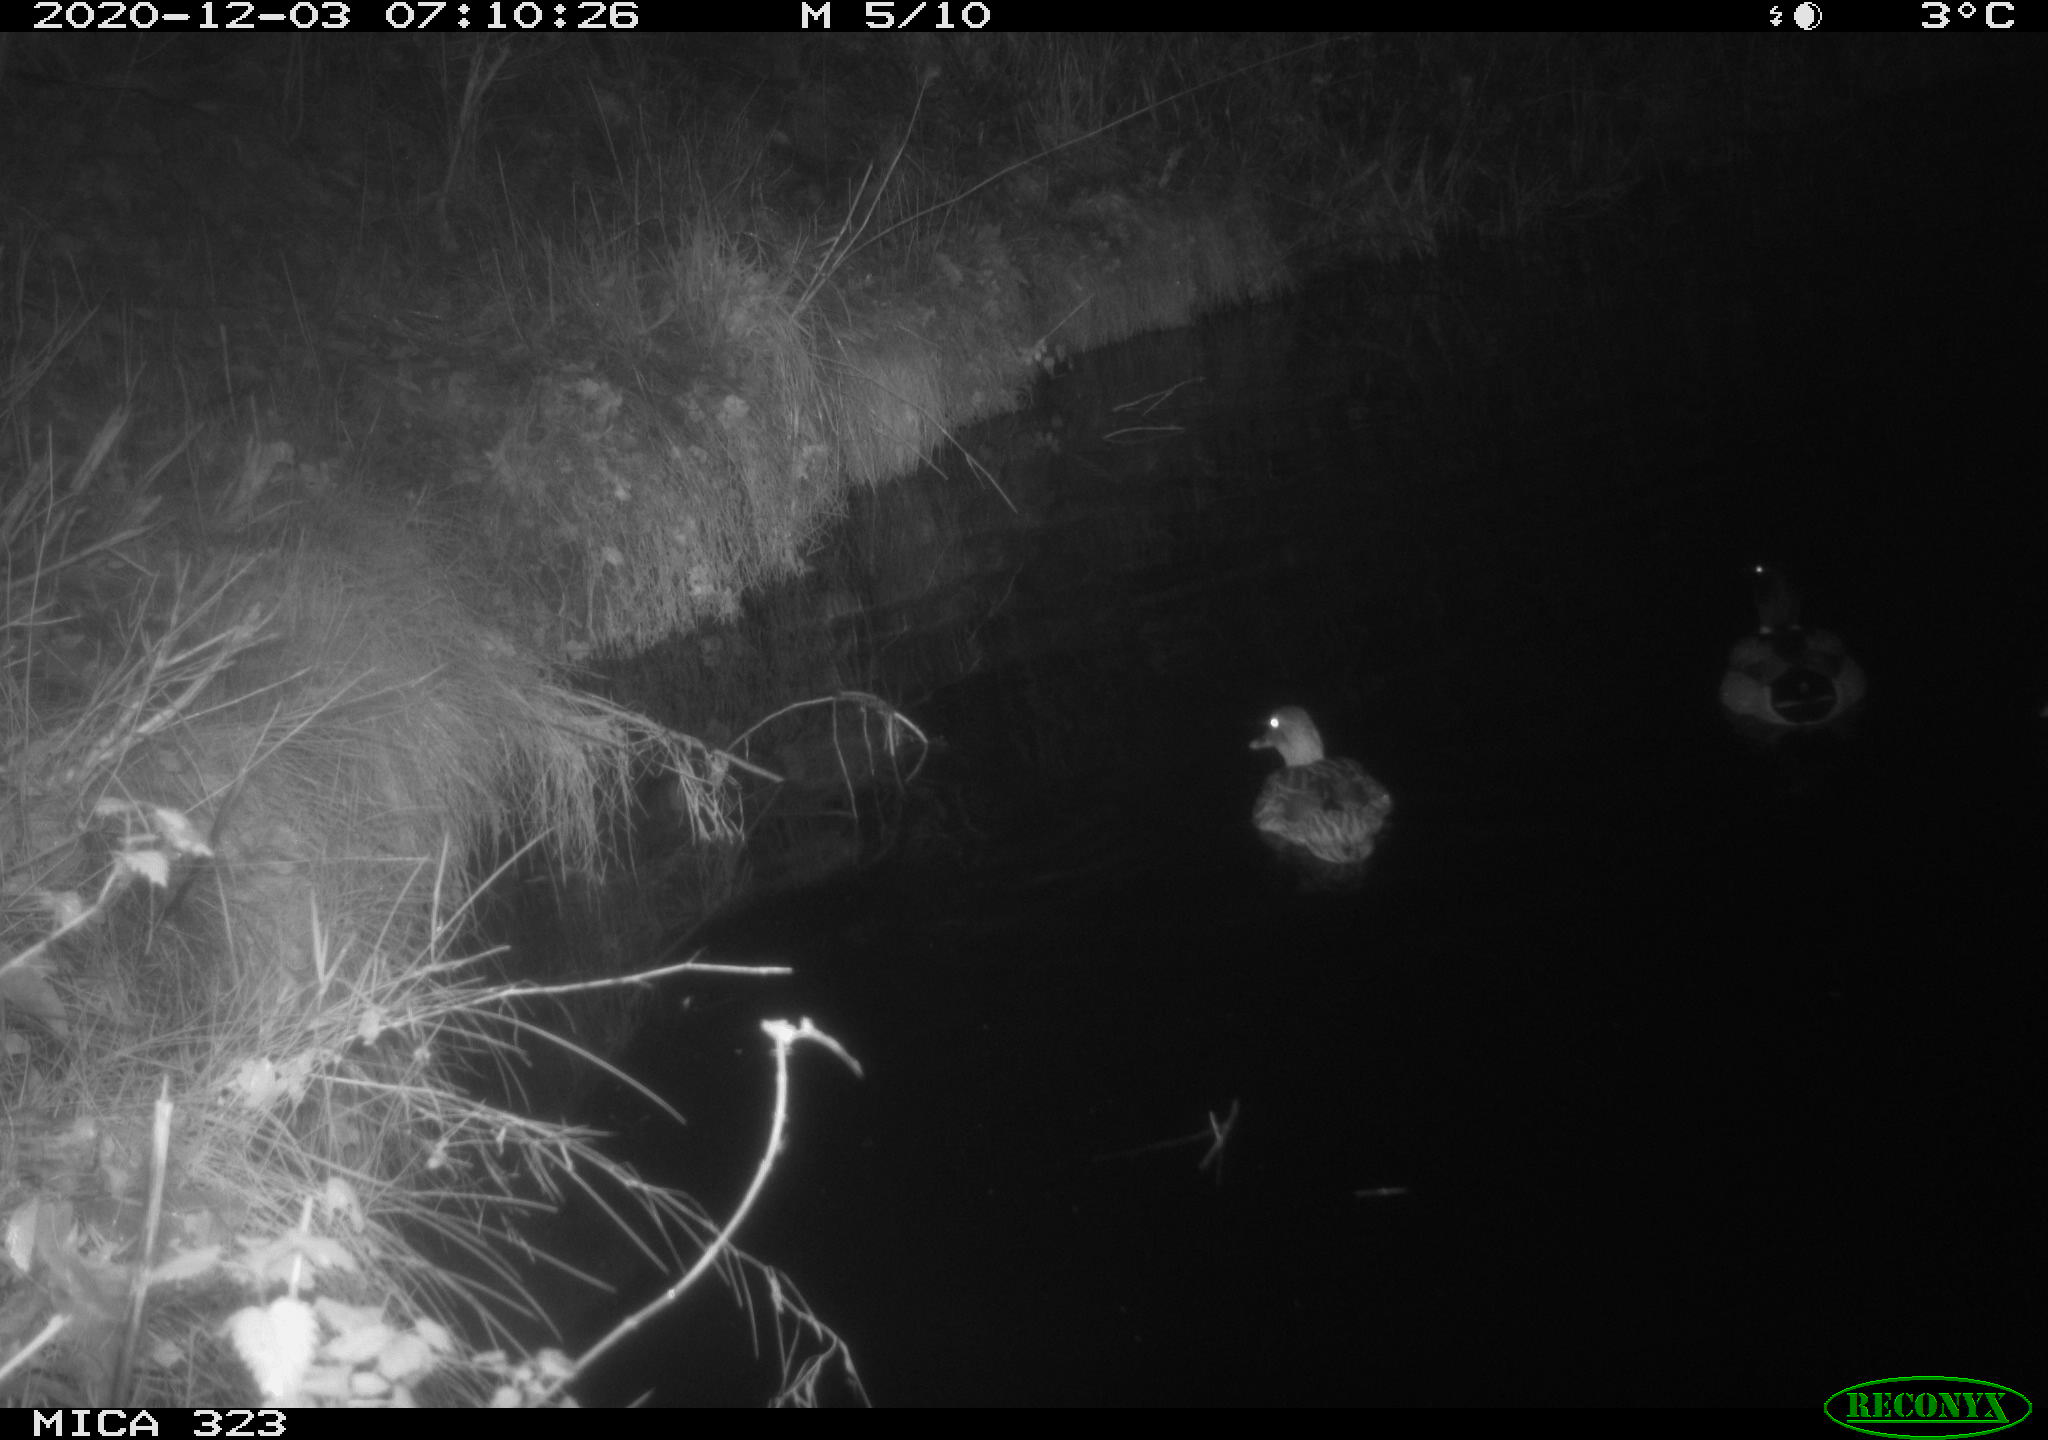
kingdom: Animalia
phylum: Chordata
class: Aves
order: Anseriformes
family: Anatidae
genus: Anas
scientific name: Anas platyrhynchos
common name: Mallard
